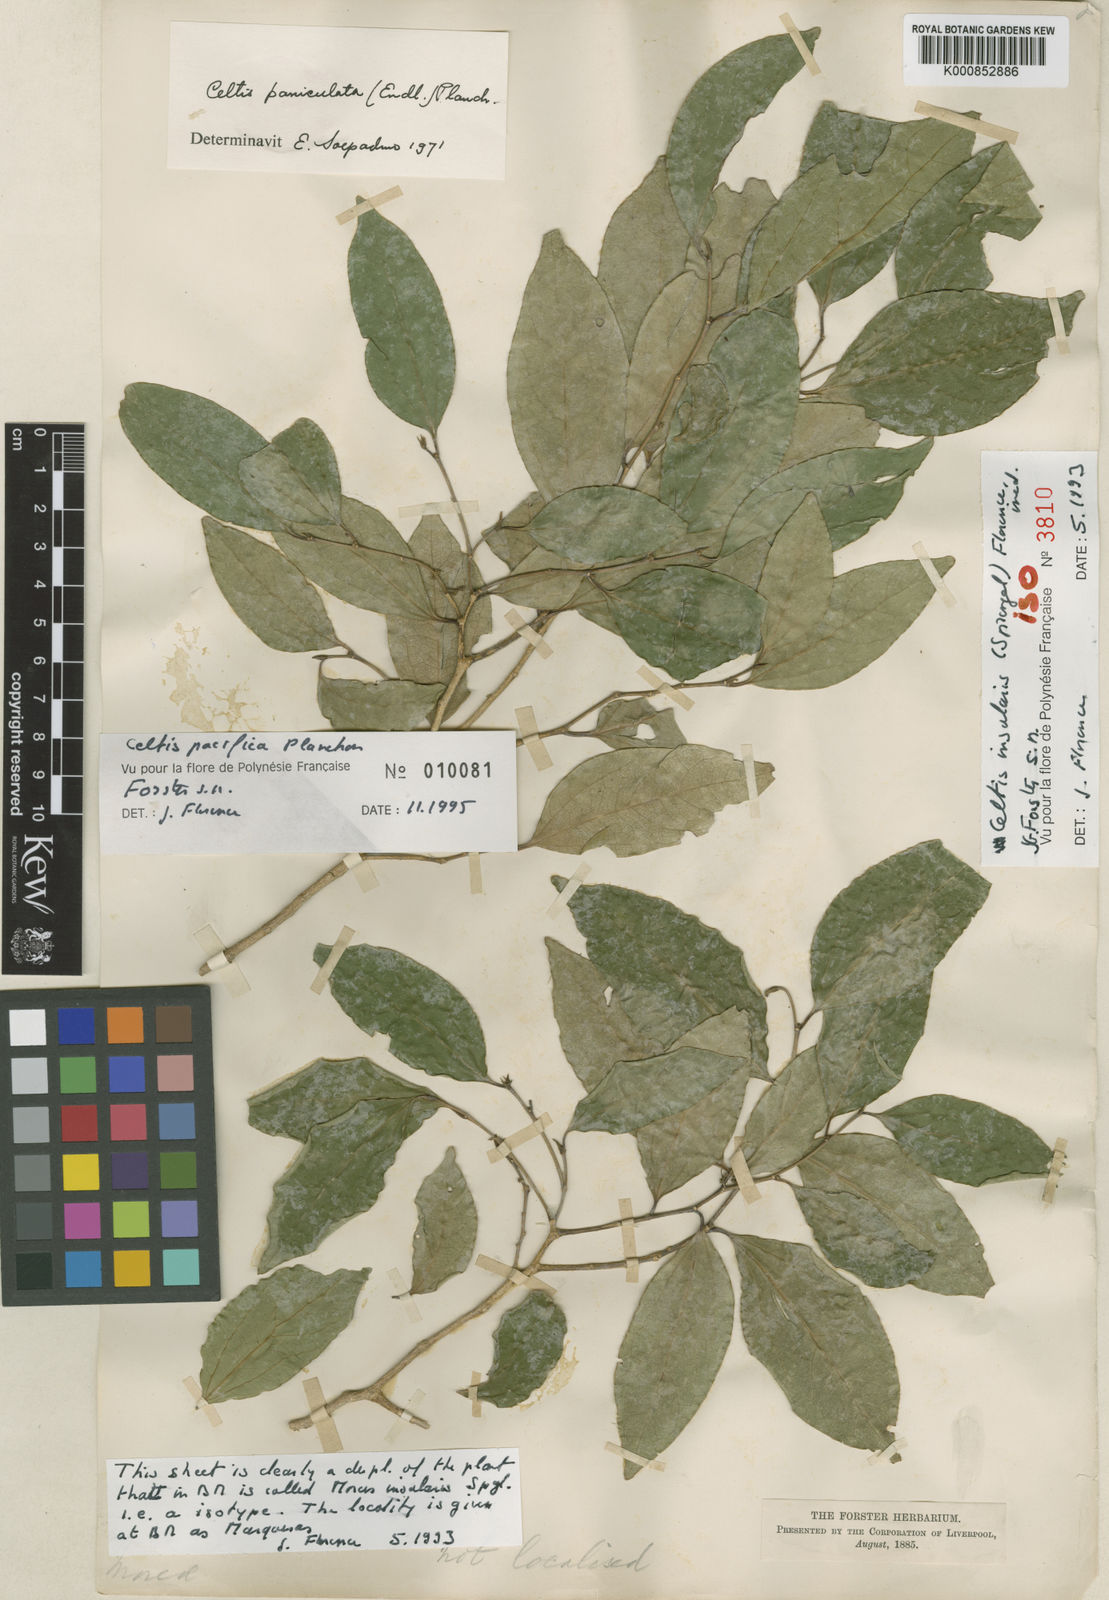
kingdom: Plantae
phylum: Tracheophyta
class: Magnoliopsida
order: Rosales
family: Cannabaceae
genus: Celtis
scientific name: Celtis pacifica
